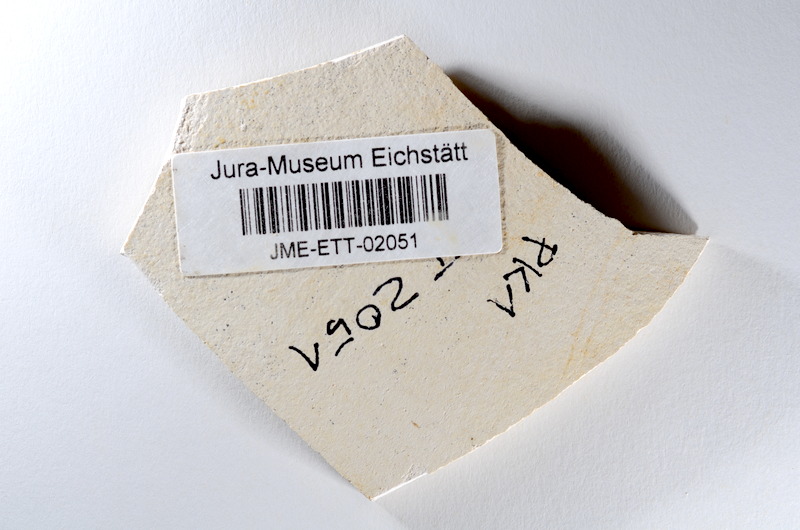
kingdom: Animalia
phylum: Chordata
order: Salmoniformes
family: Orthogonikleithridae
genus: Orthogonikleithrus
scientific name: Orthogonikleithrus hoelli
